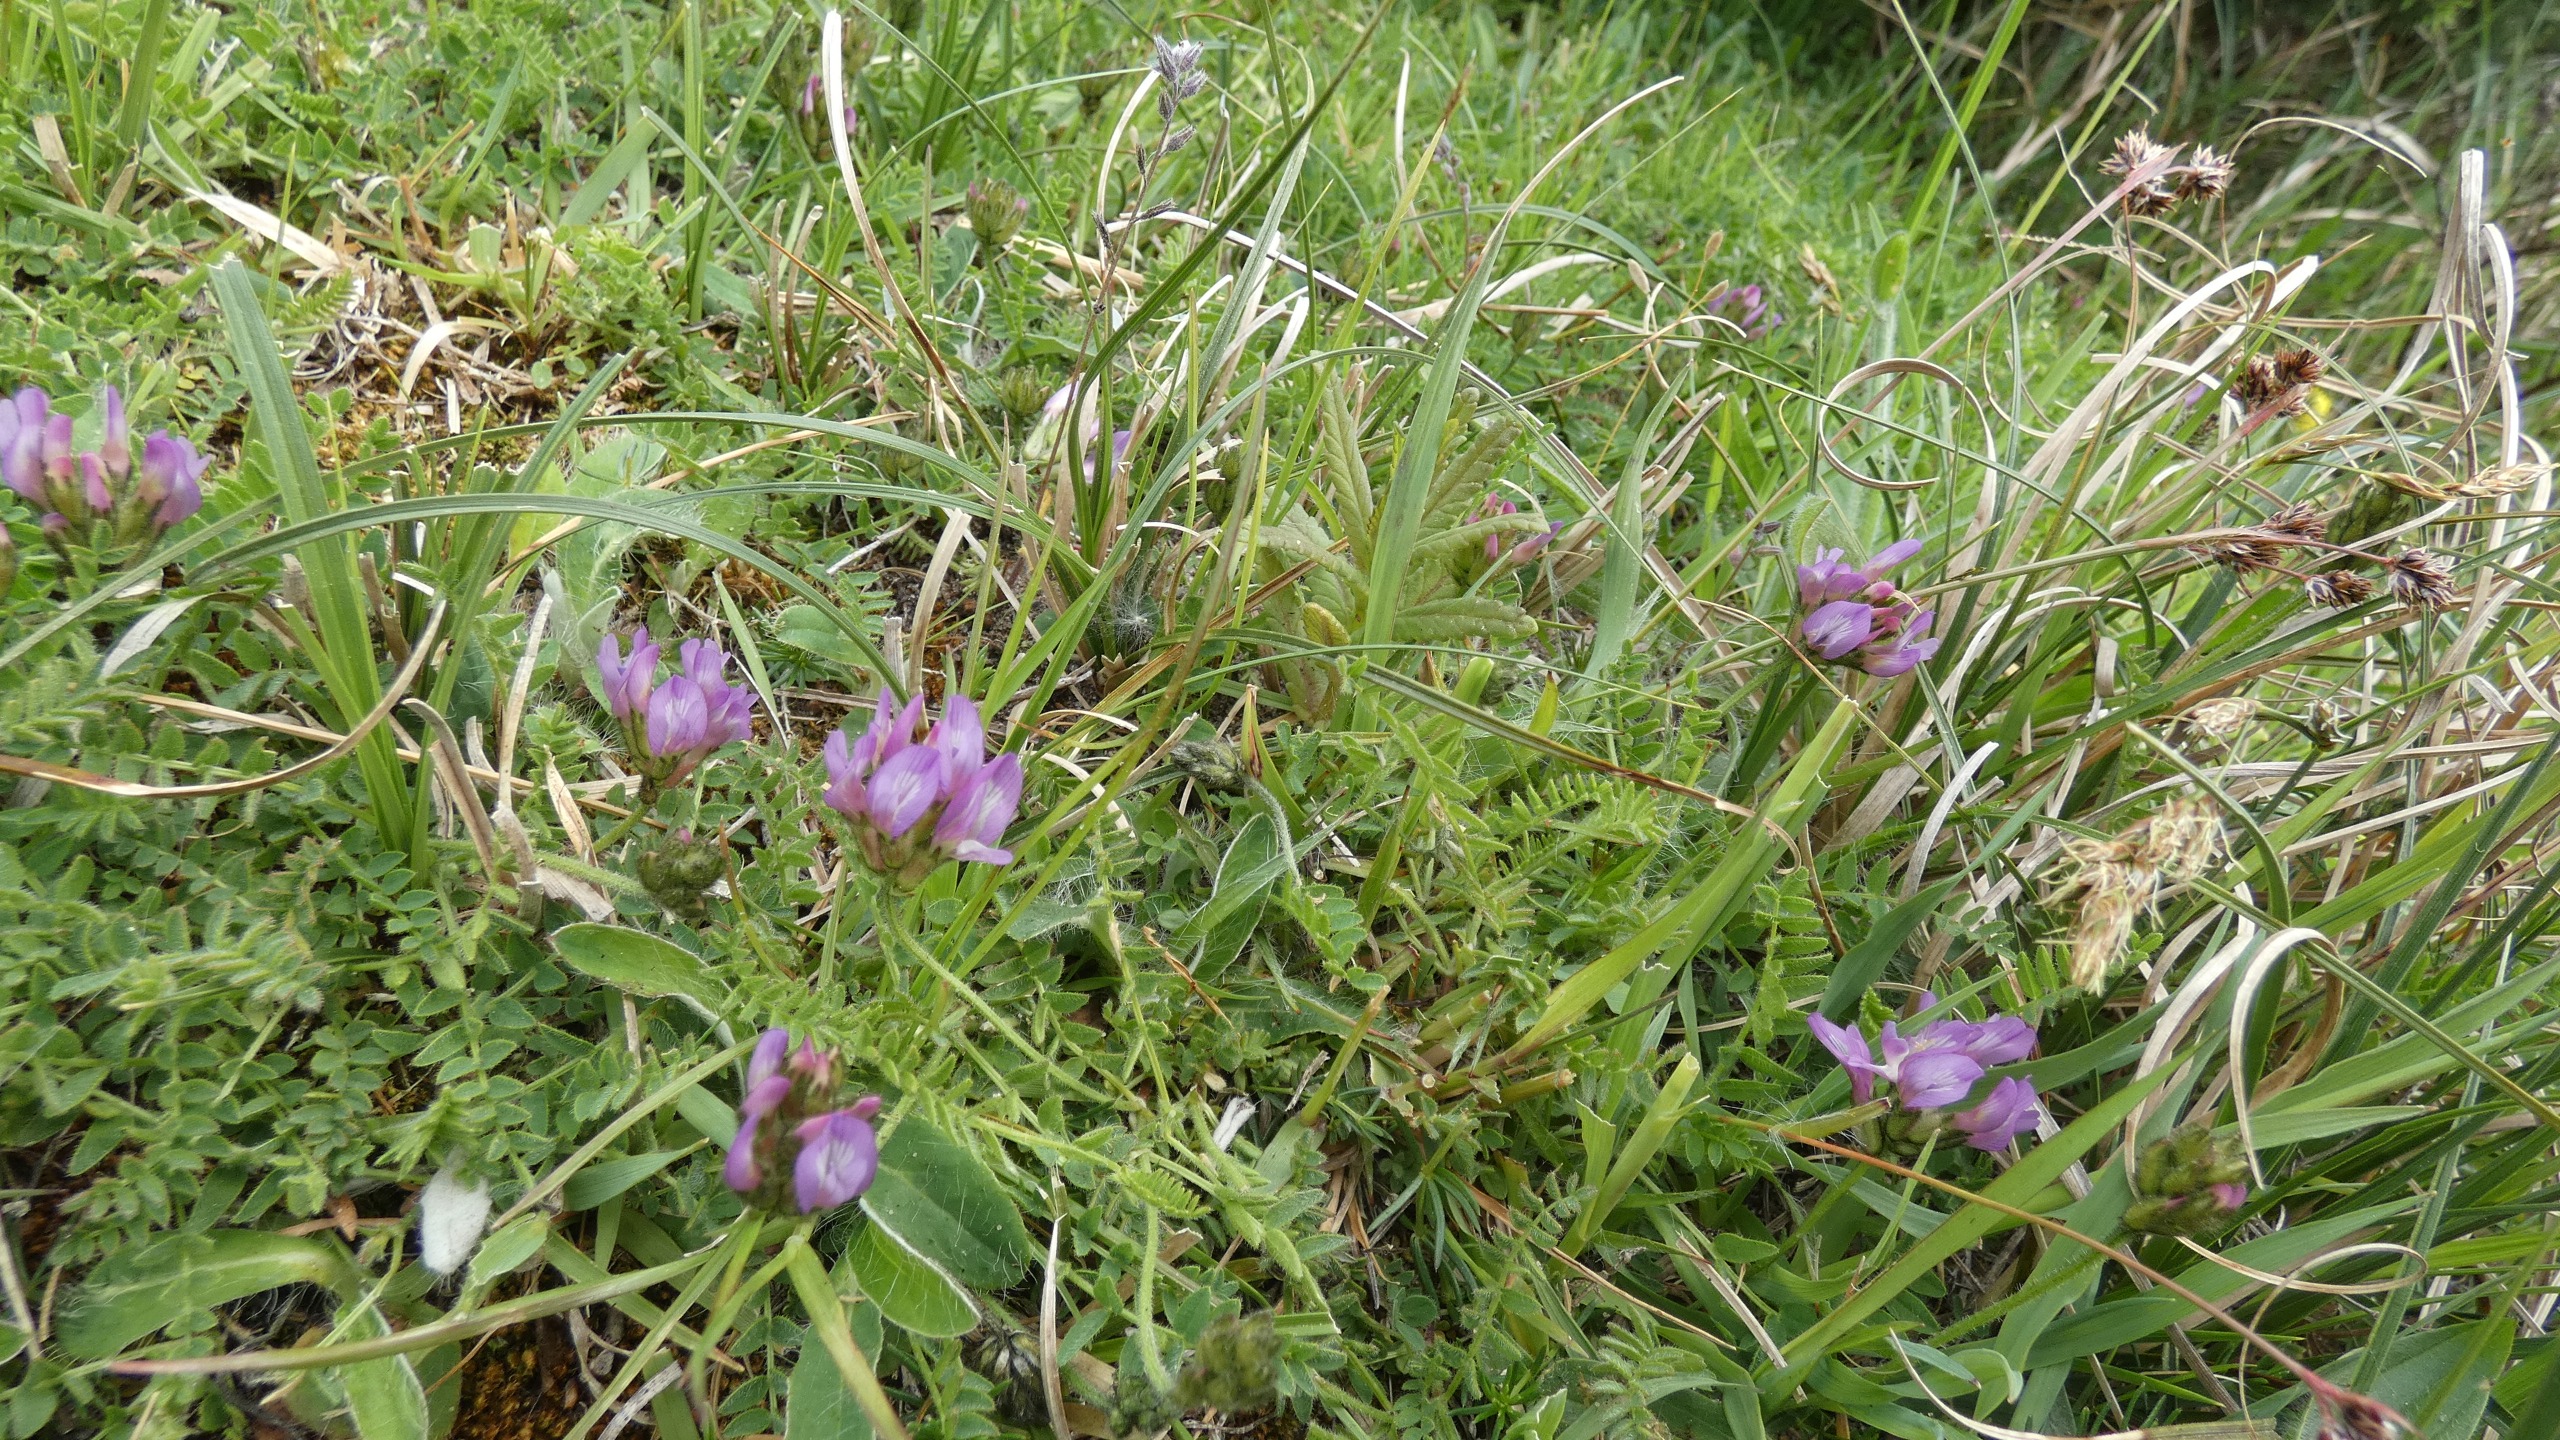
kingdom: Plantae
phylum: Tracheophyta
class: Magnoliopsida
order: Fabales
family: Fabaceae
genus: Astragalus
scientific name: Astragalus danicus
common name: Dansk astragel
